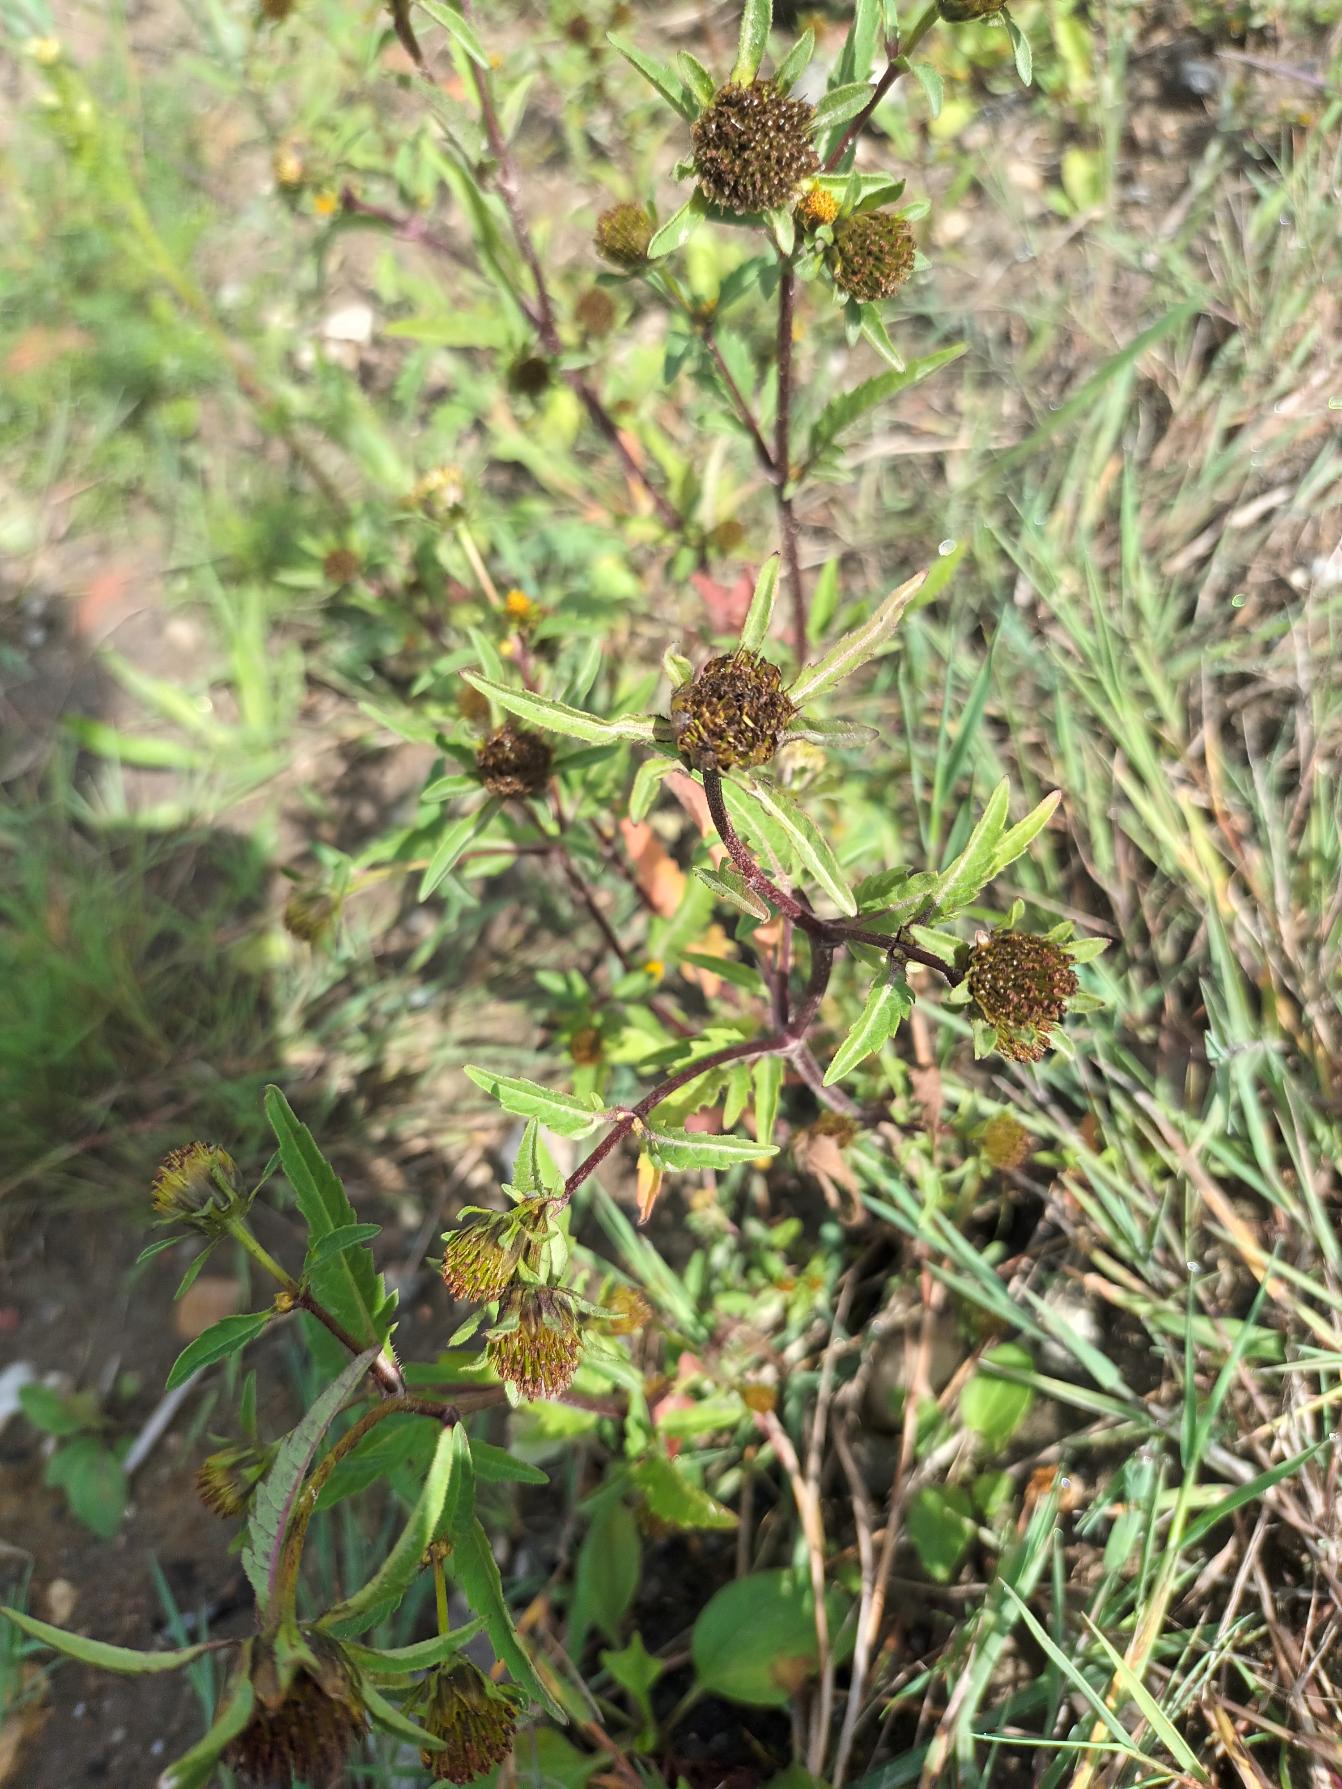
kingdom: Plantae
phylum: Tracheophyta
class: Magnoliopsida
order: Asterales
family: Asteraceae
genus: Bidens
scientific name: Bidens tripartita
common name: Fliget brøndsel
